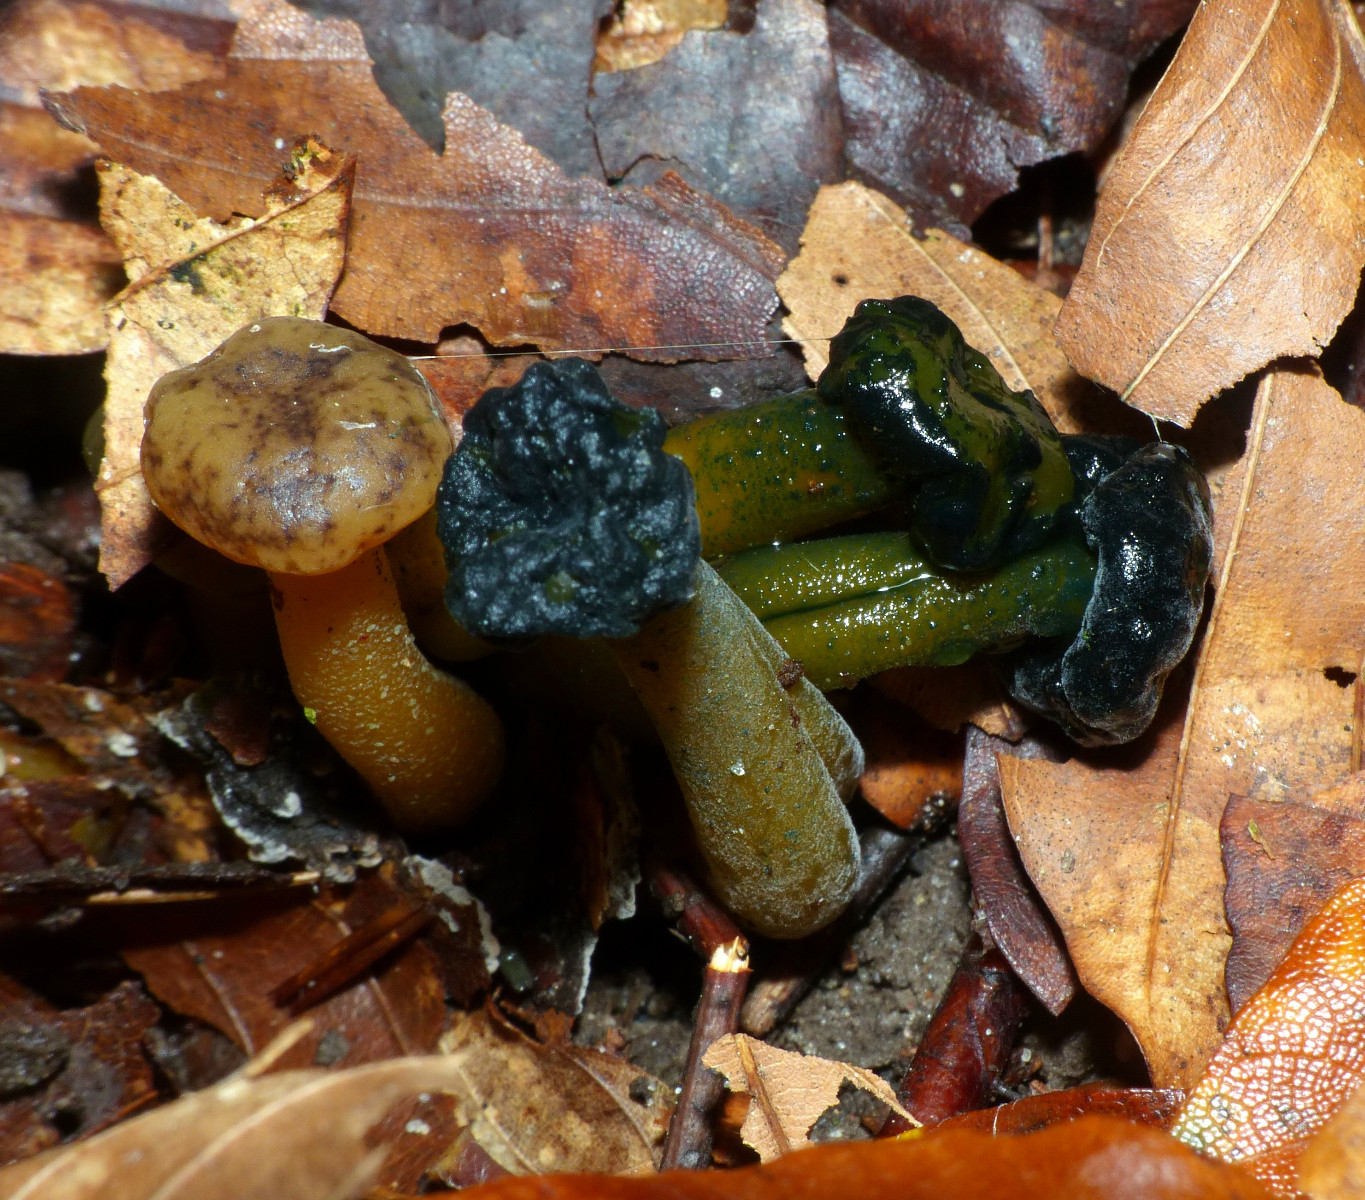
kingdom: Fungi
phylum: Ascomycota
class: Sordariomycetes
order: Hypocreales
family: Hypocreaceae
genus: Hypomyces
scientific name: Hypomyces leotiicola
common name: ravsvamp-snylteskorpe
